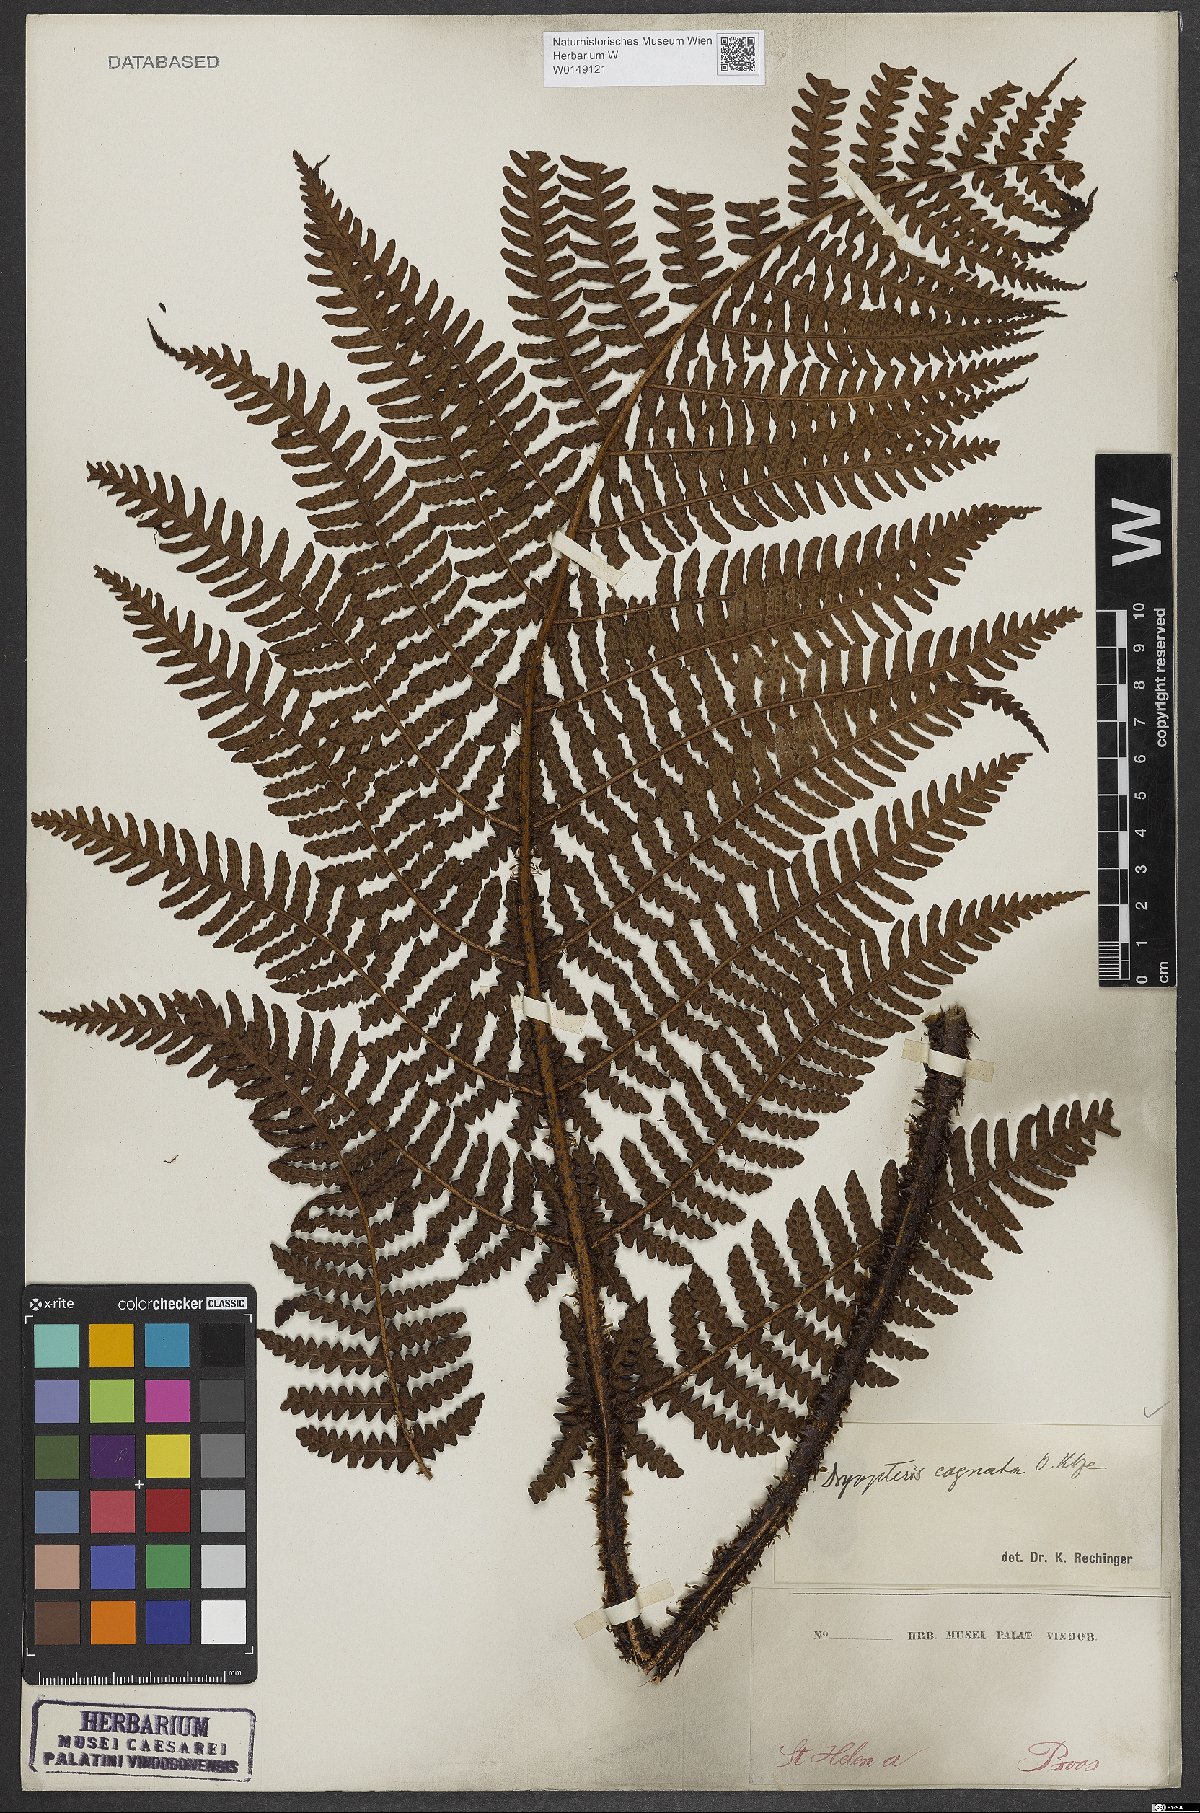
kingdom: Plantae
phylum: Tracheophyta
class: Polypodiopsida
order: Polypodiales
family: Dryopteridaceae
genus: Dryopteris
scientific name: Dryopteris cognata
